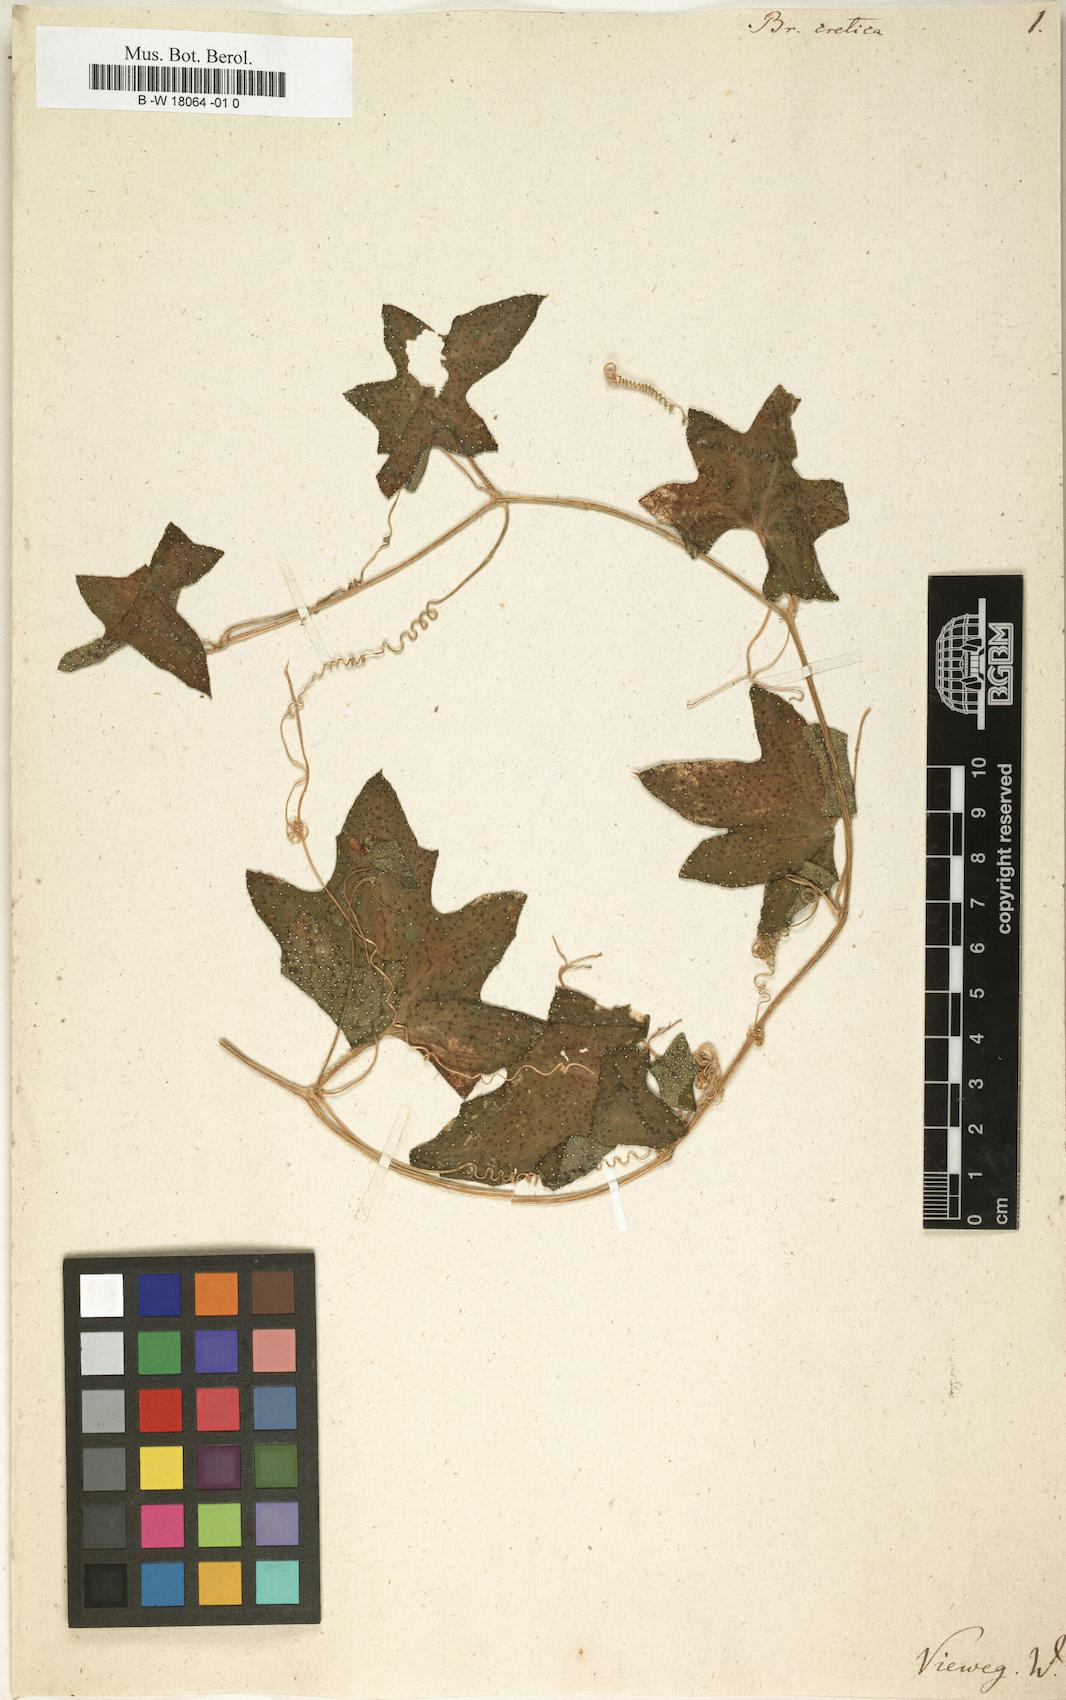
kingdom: Plantae
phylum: Tracheophyta
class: Magnoliopsida
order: Cucurbitales
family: Cucurbitaceae
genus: Bryonia
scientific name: Bryonia cretica
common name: Cretan bryony
